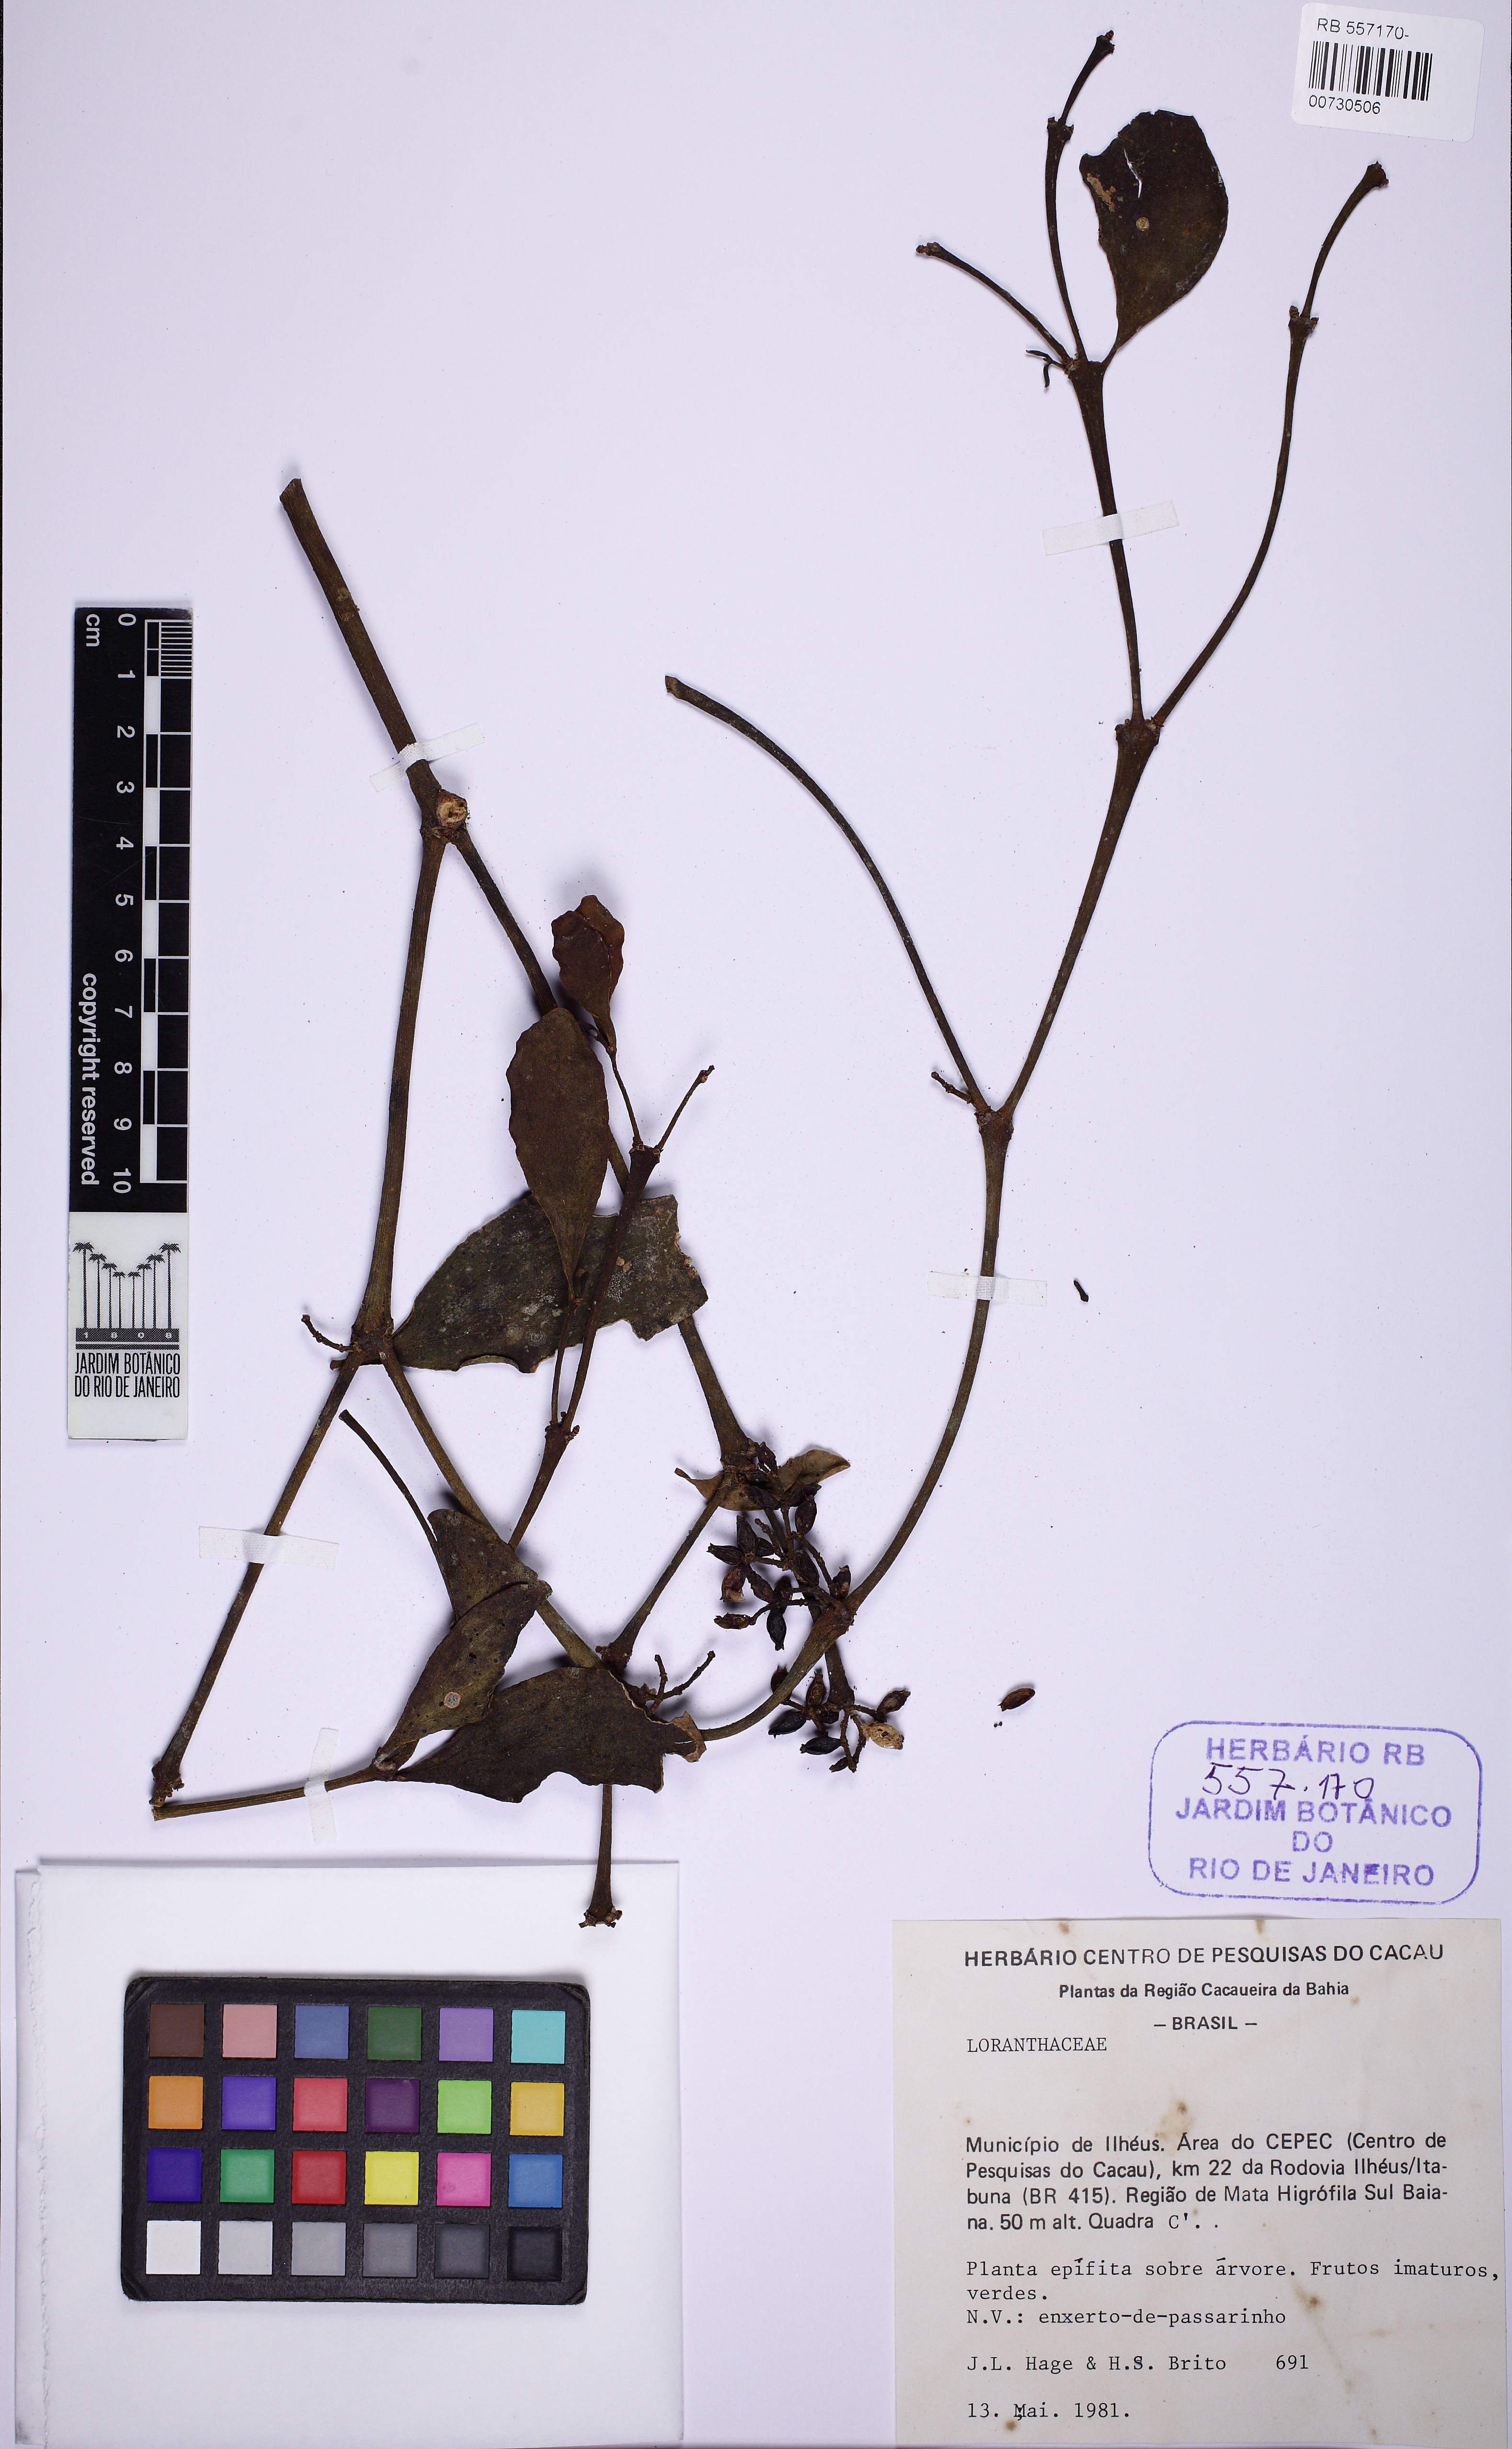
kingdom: Plantae
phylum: Tracheophyta
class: Magnoliopsida
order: Santalales
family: Viscaceae
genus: Phoradendron
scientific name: Phoradendron obtusissimum
